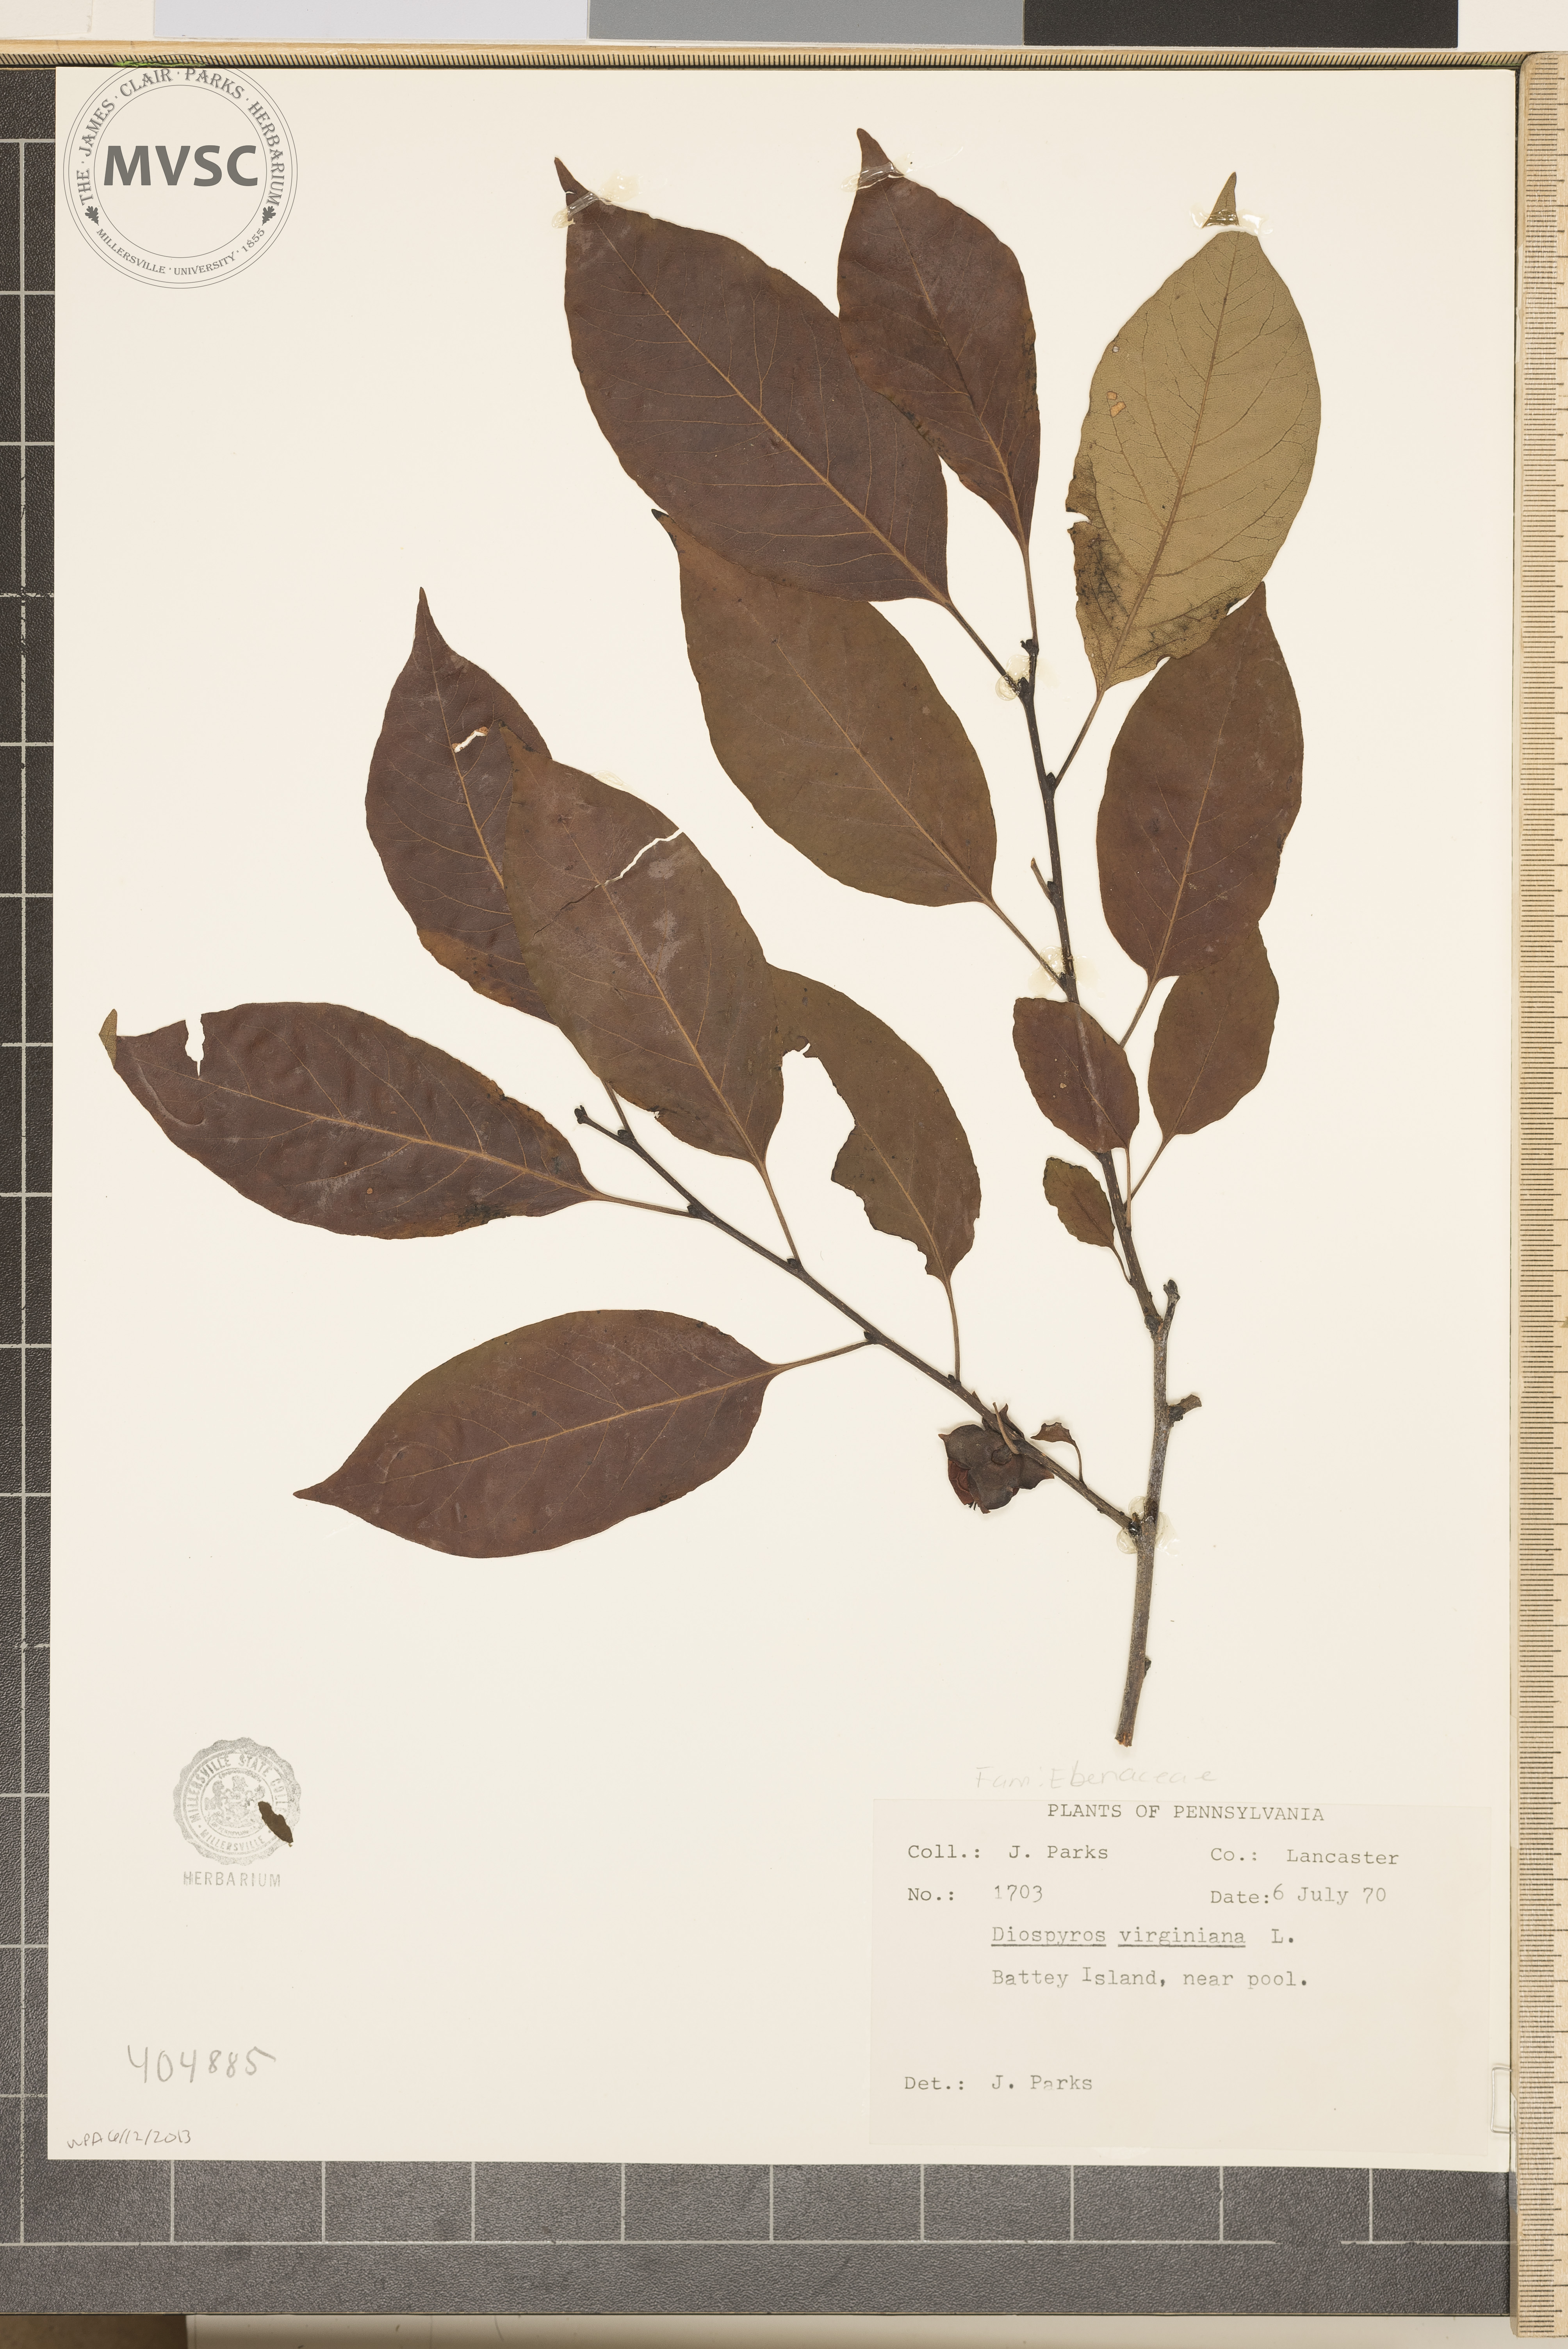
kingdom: Plantae
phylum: Tracheophyta
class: Magnoliopsida
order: Ericales
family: Ebenaceae
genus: Diospyros
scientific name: Diospyros virginiana
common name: Persimmon
